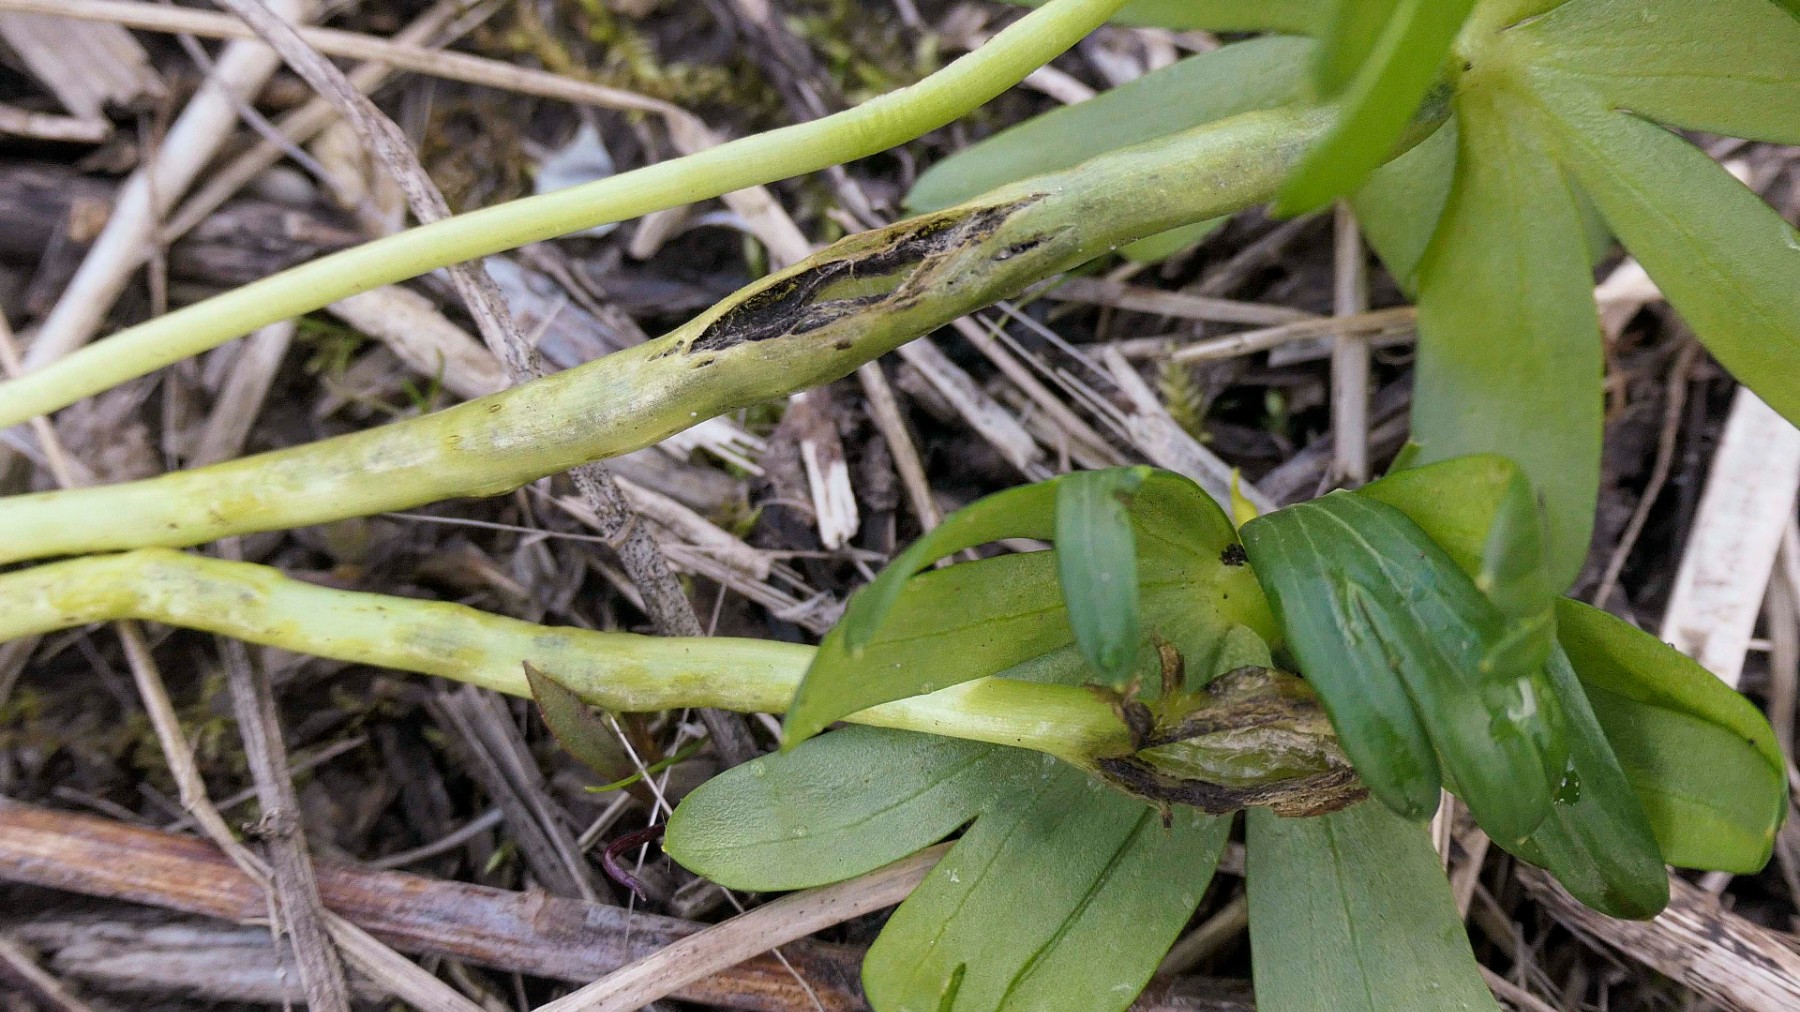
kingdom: Fungi
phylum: Basidiomycota
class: Ustilaginomycetes
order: Urocystidales
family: Urocystidaceae
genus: Urocystis
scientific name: Urocystis eranthidis
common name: erantis-brand
